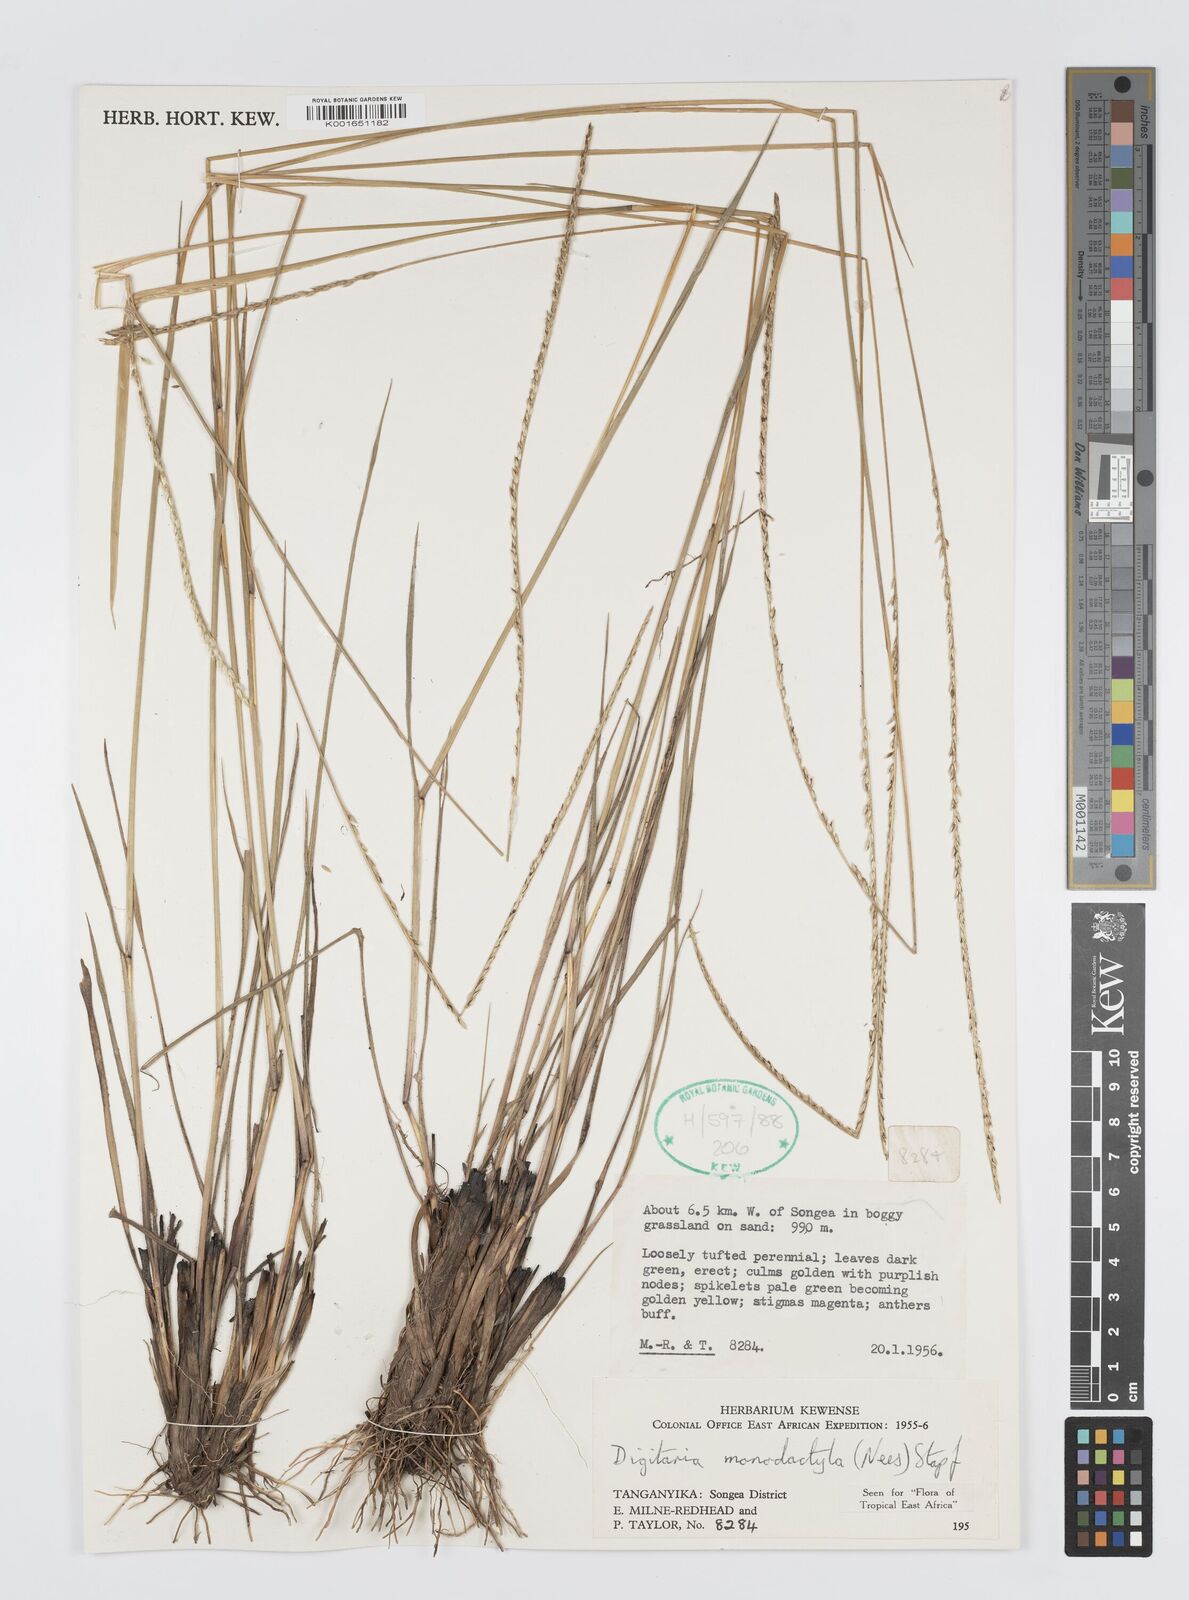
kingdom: Plantae
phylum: Tracheophyta
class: Liliopsida
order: Poales
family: Poaceae
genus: Digitaria
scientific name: Digitaria monodactyla
